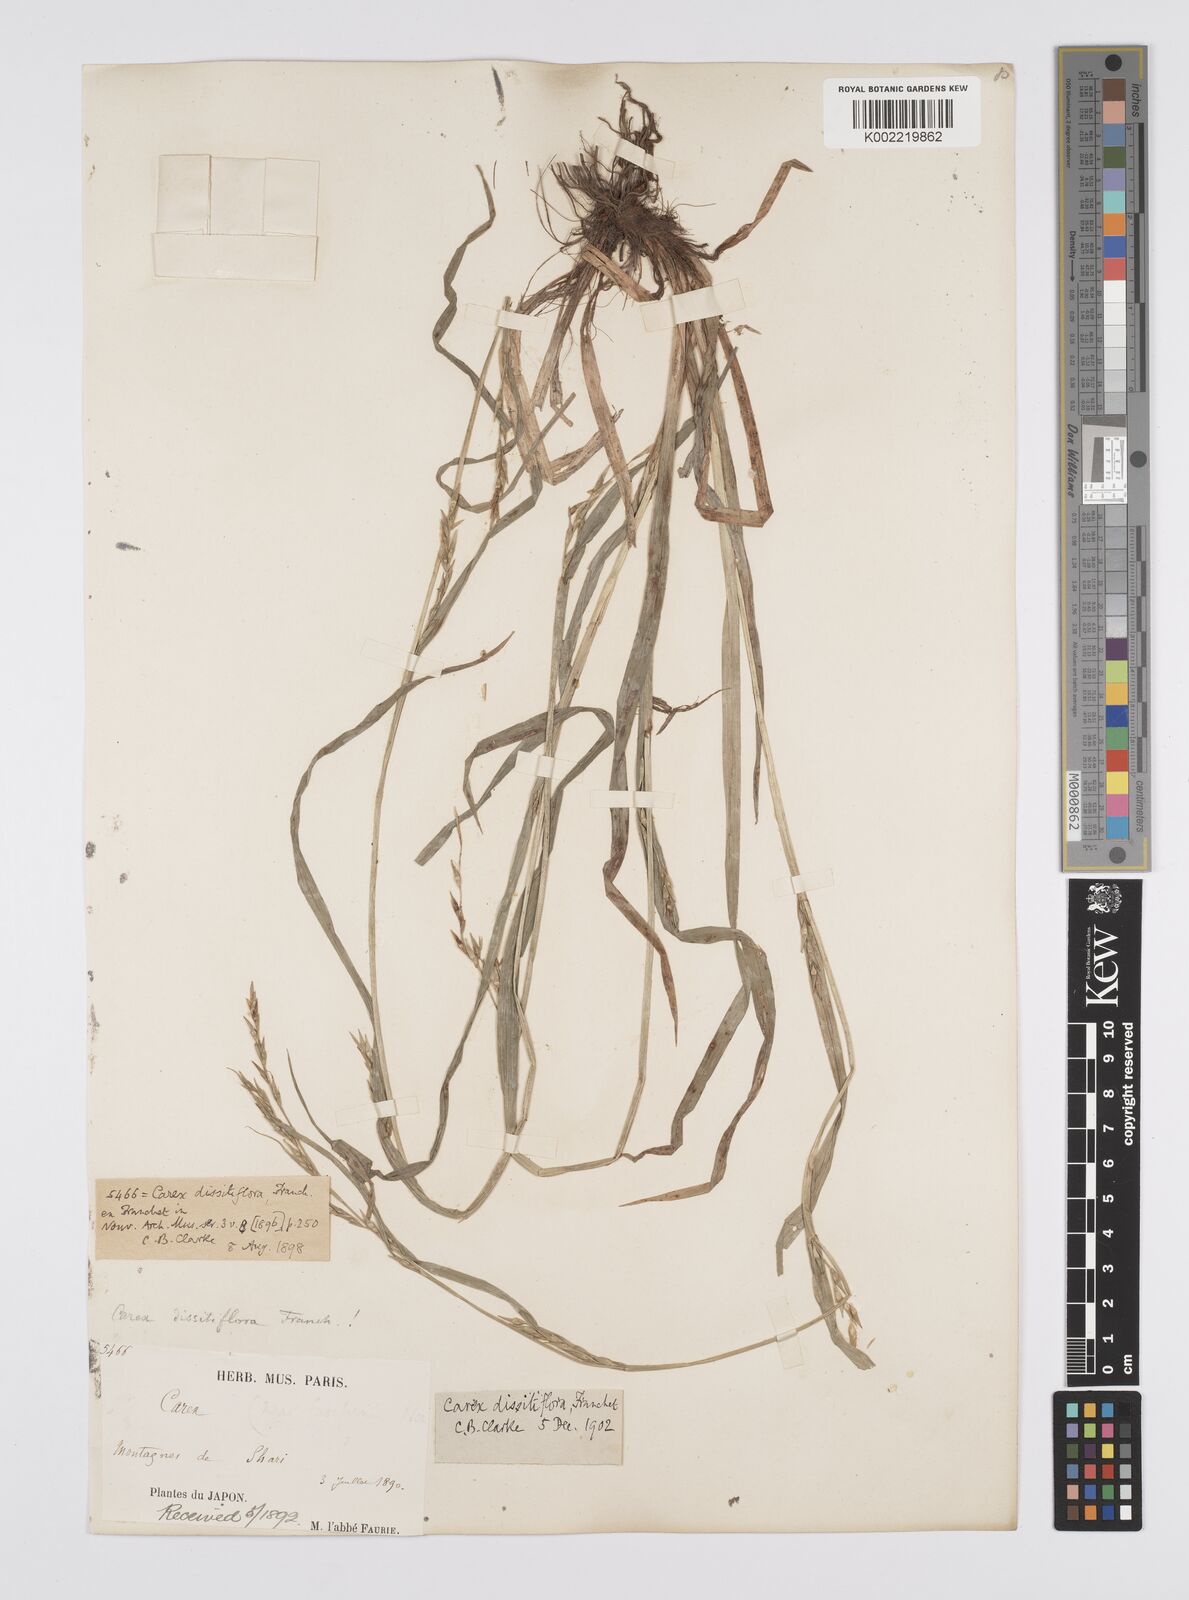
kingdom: Plantae
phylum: Tracheophyta
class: Liliopsida
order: Poales
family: Cyperaceae
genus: Carex
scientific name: Carex dissitiflora
